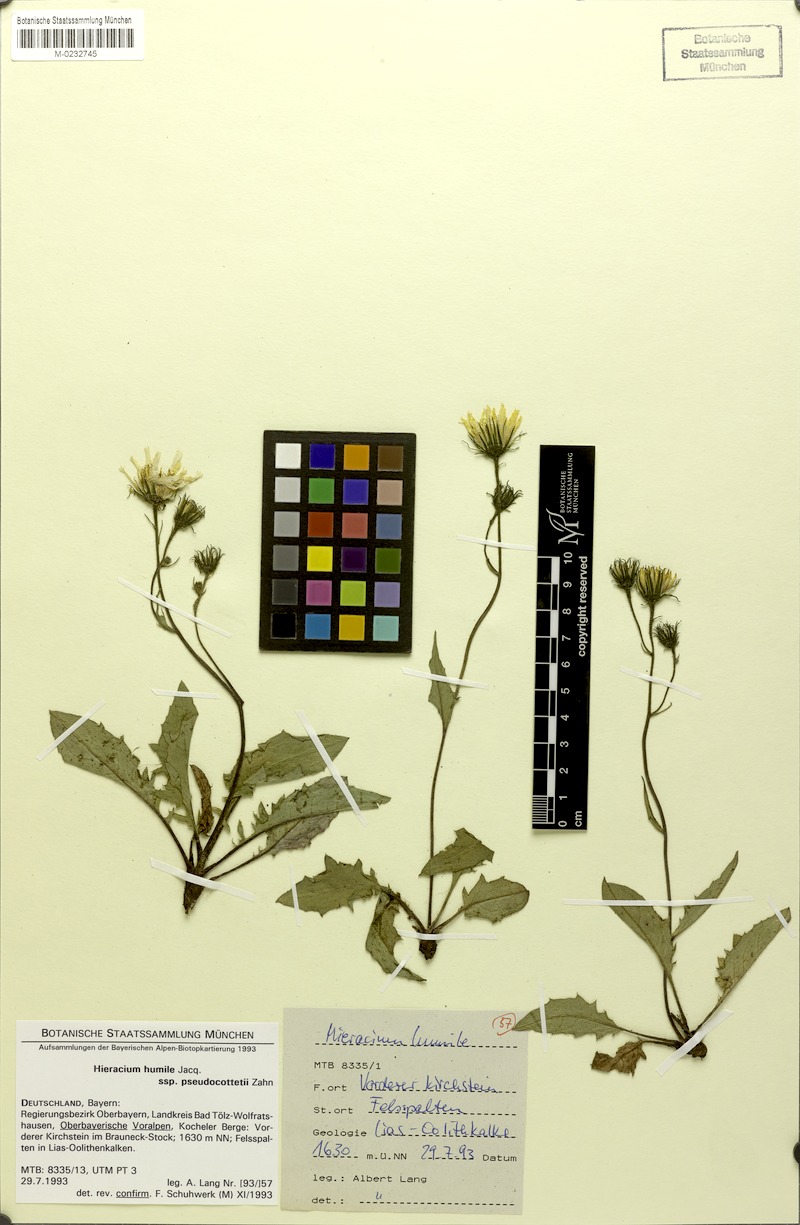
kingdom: Plantae
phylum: Tracheophyta
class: Magnoliopsida
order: Asterales
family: Asteraceae
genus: Hieracium
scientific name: Hieracium humile
